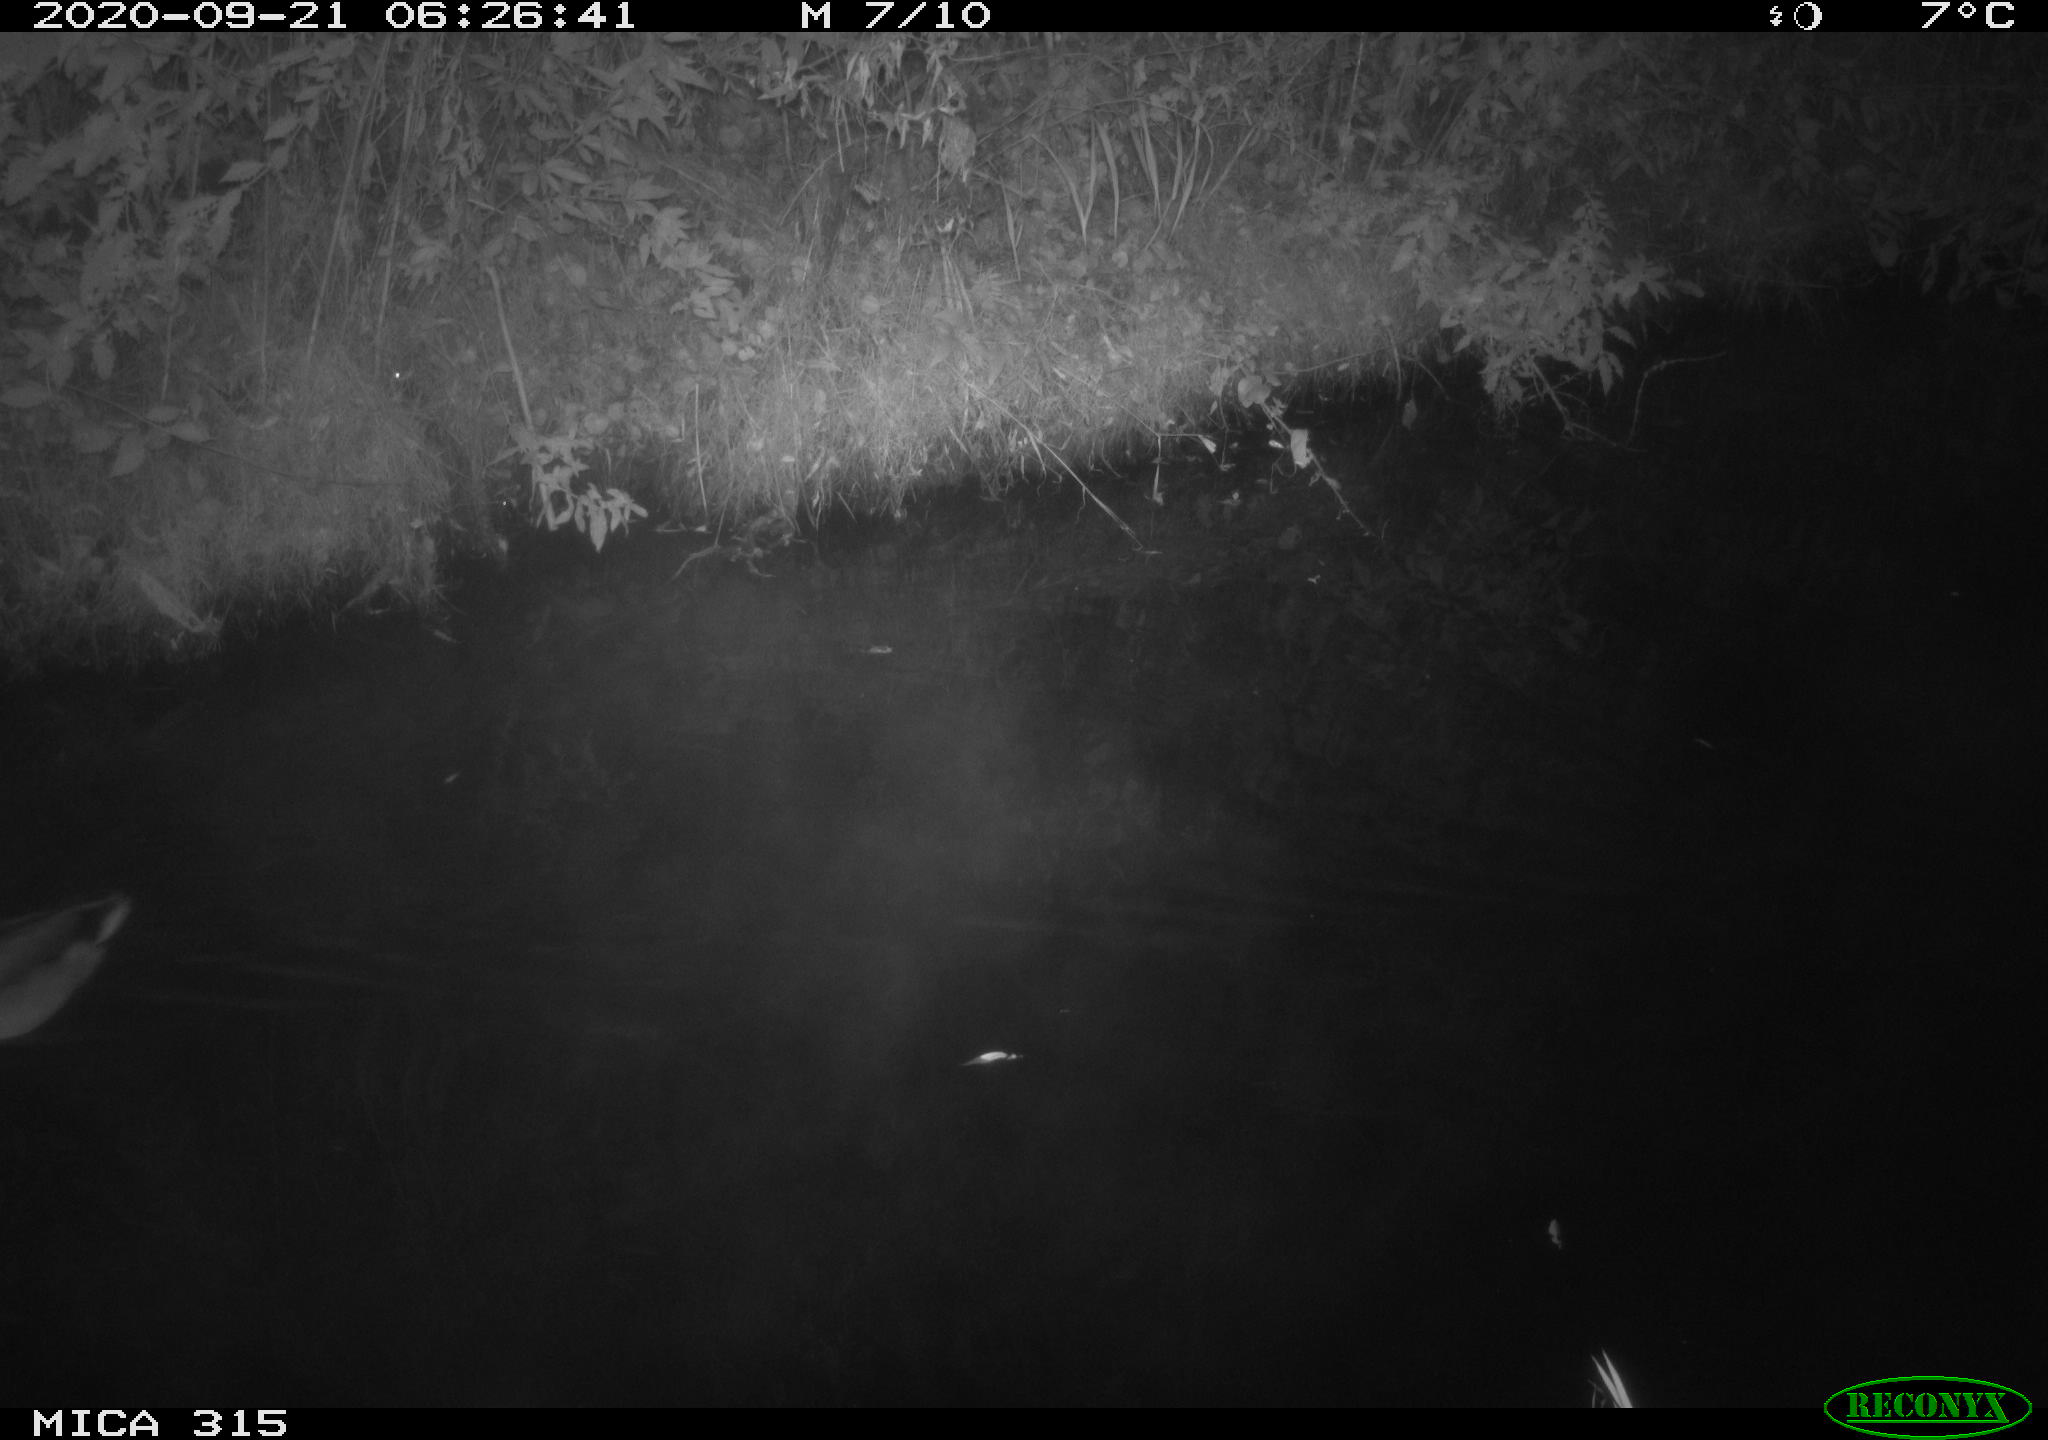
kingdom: Animalia
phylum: Chordata
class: Aves
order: Anseriformes
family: Anatidae
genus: Anas
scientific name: Anas platyrhynchos
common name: Mallard
